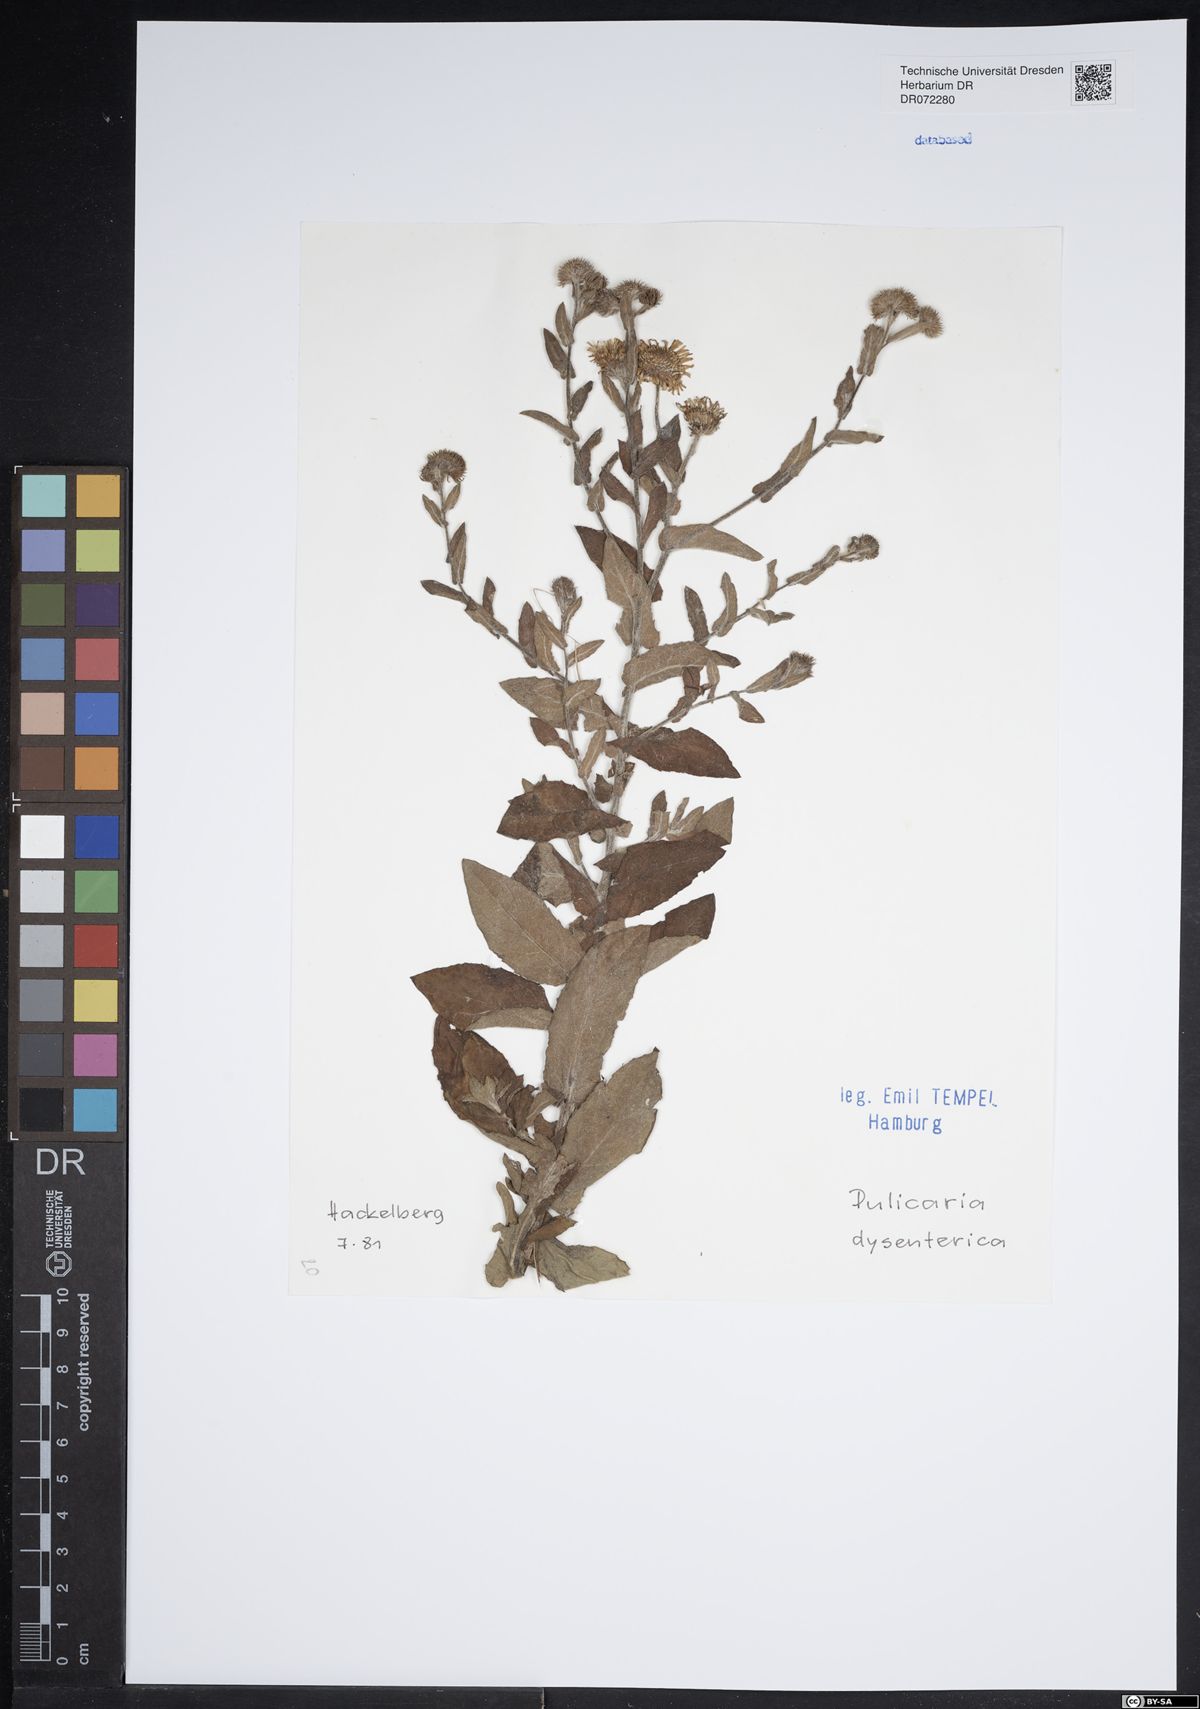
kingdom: Plantae
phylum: Tracheophyta
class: Magnoliopsida
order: Asterales
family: Asteraceae
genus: Pulicaria
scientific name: Pulicaria dysenterica
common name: Common fleabane
